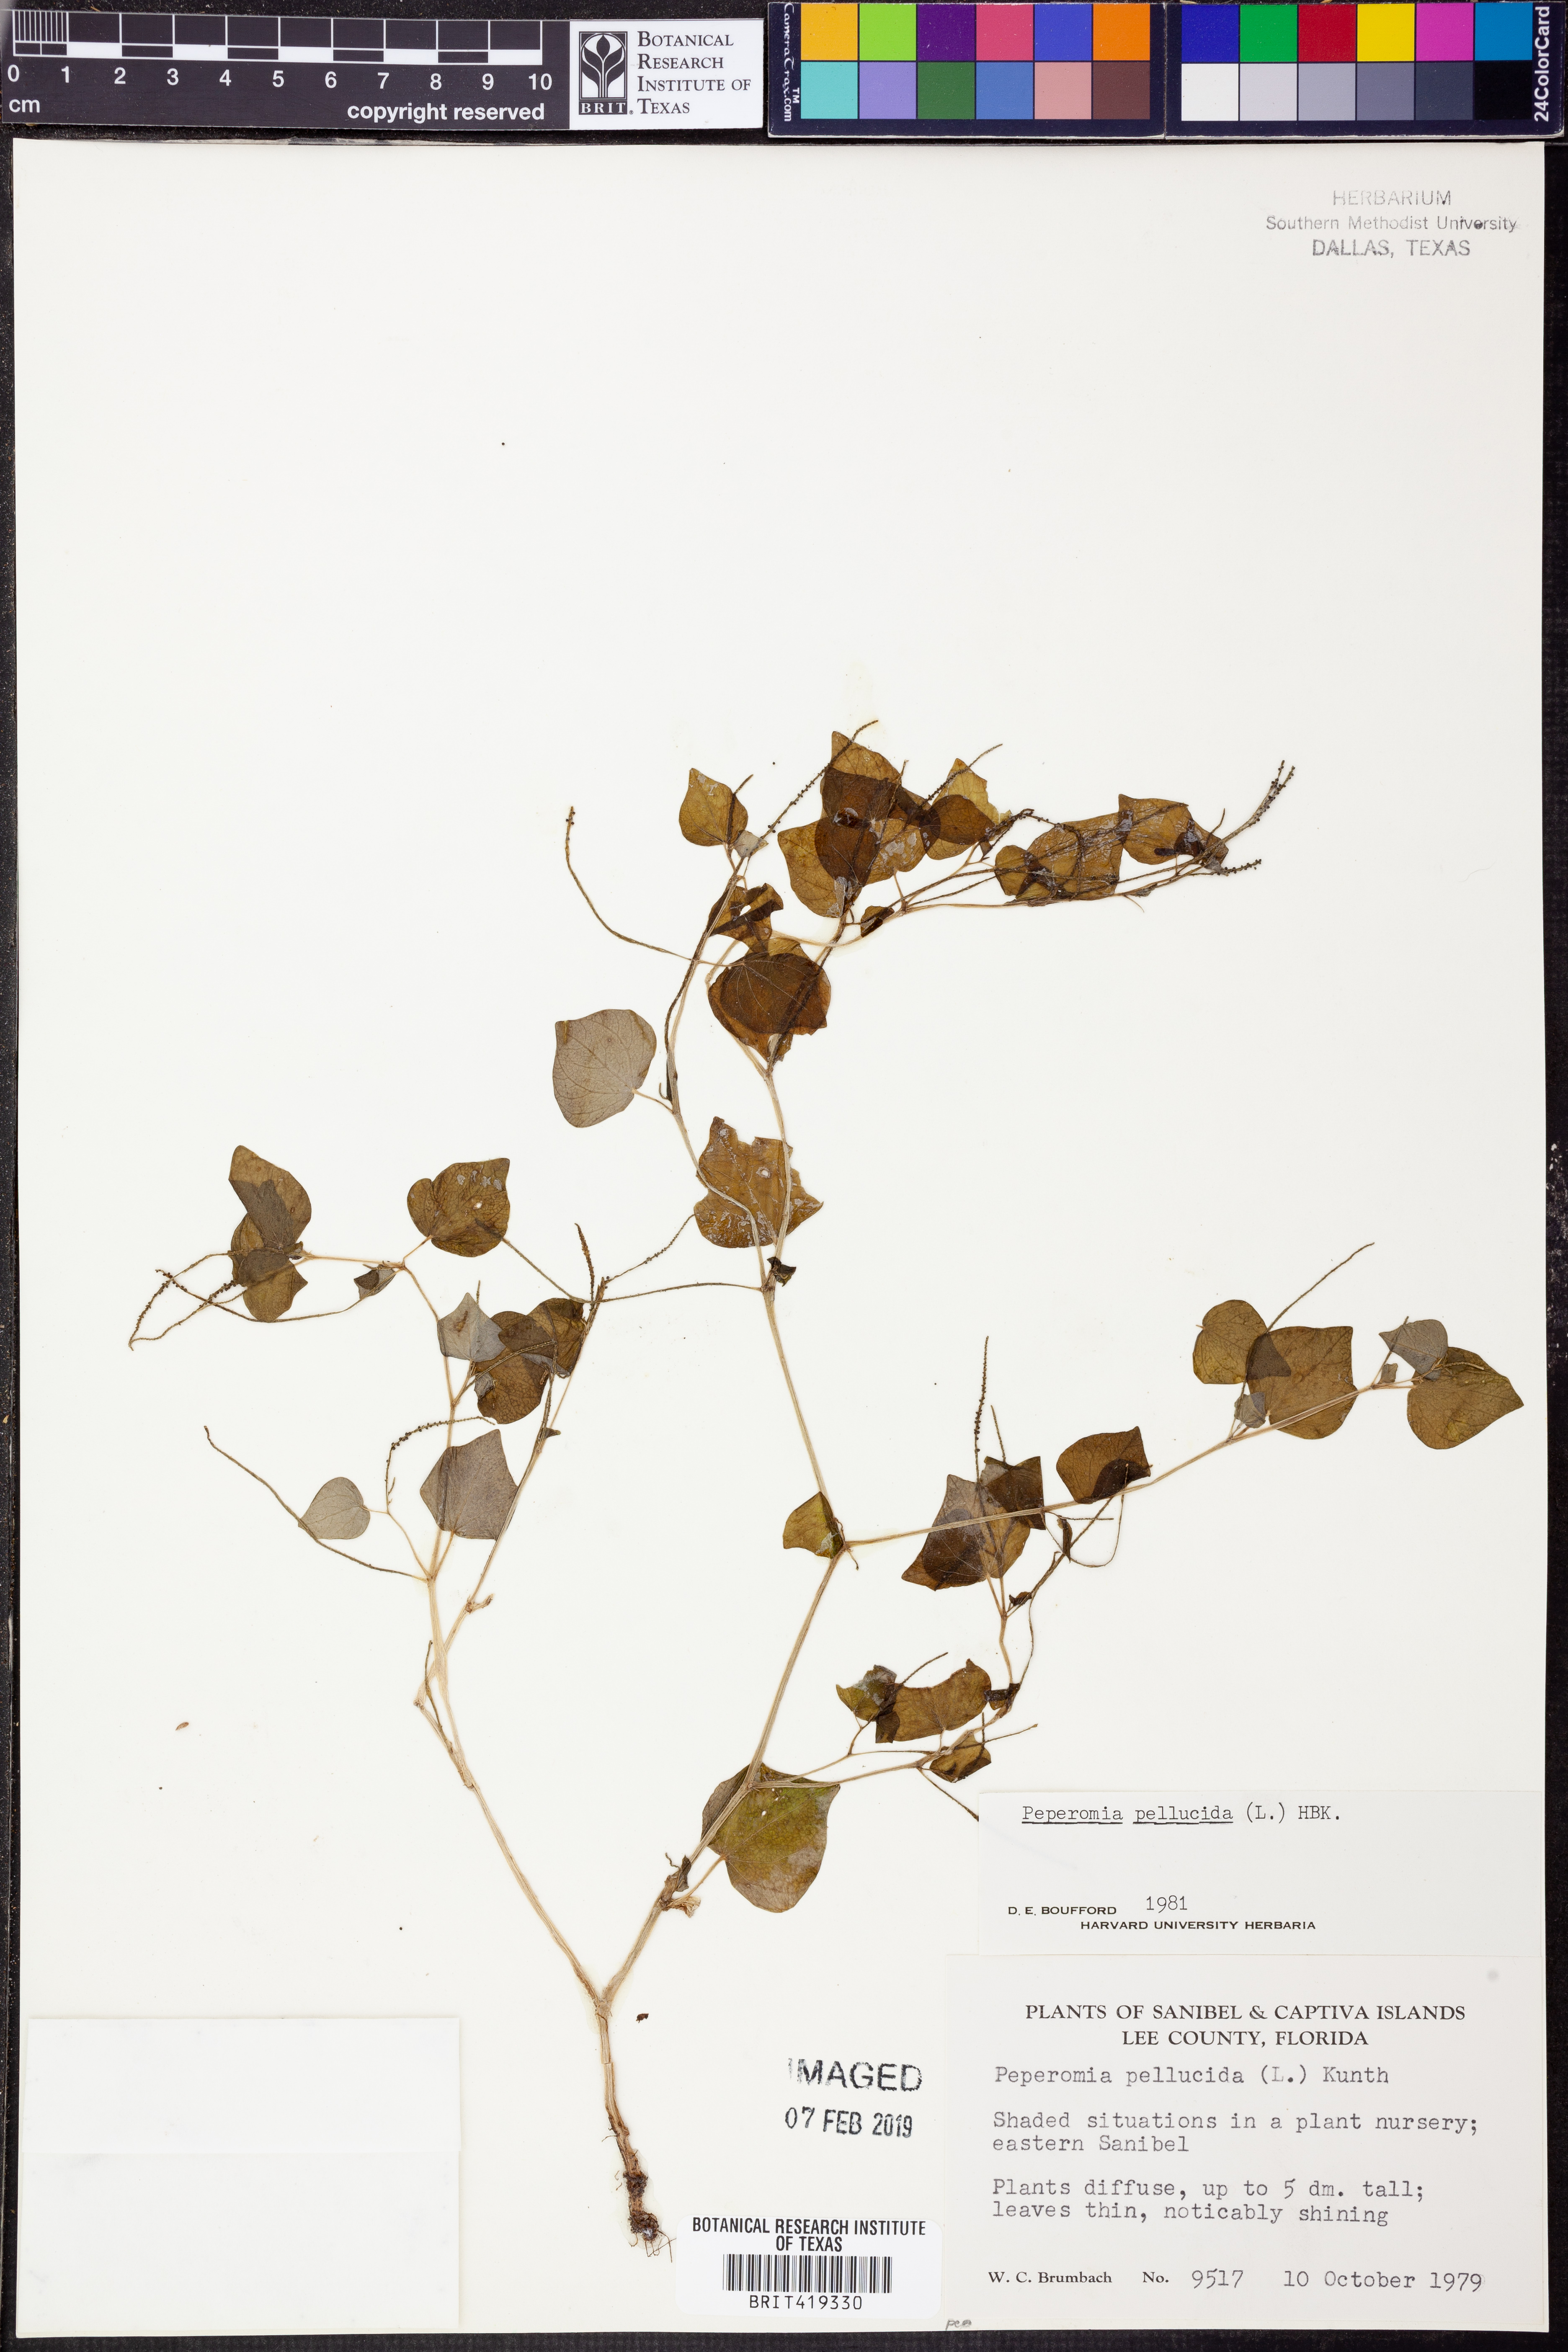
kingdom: Plantae
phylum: Tracheophyta
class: Magnoliopsida
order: Piperales
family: Piperaceae
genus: Peperomia
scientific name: Peperomia pellucida
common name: Man to man
